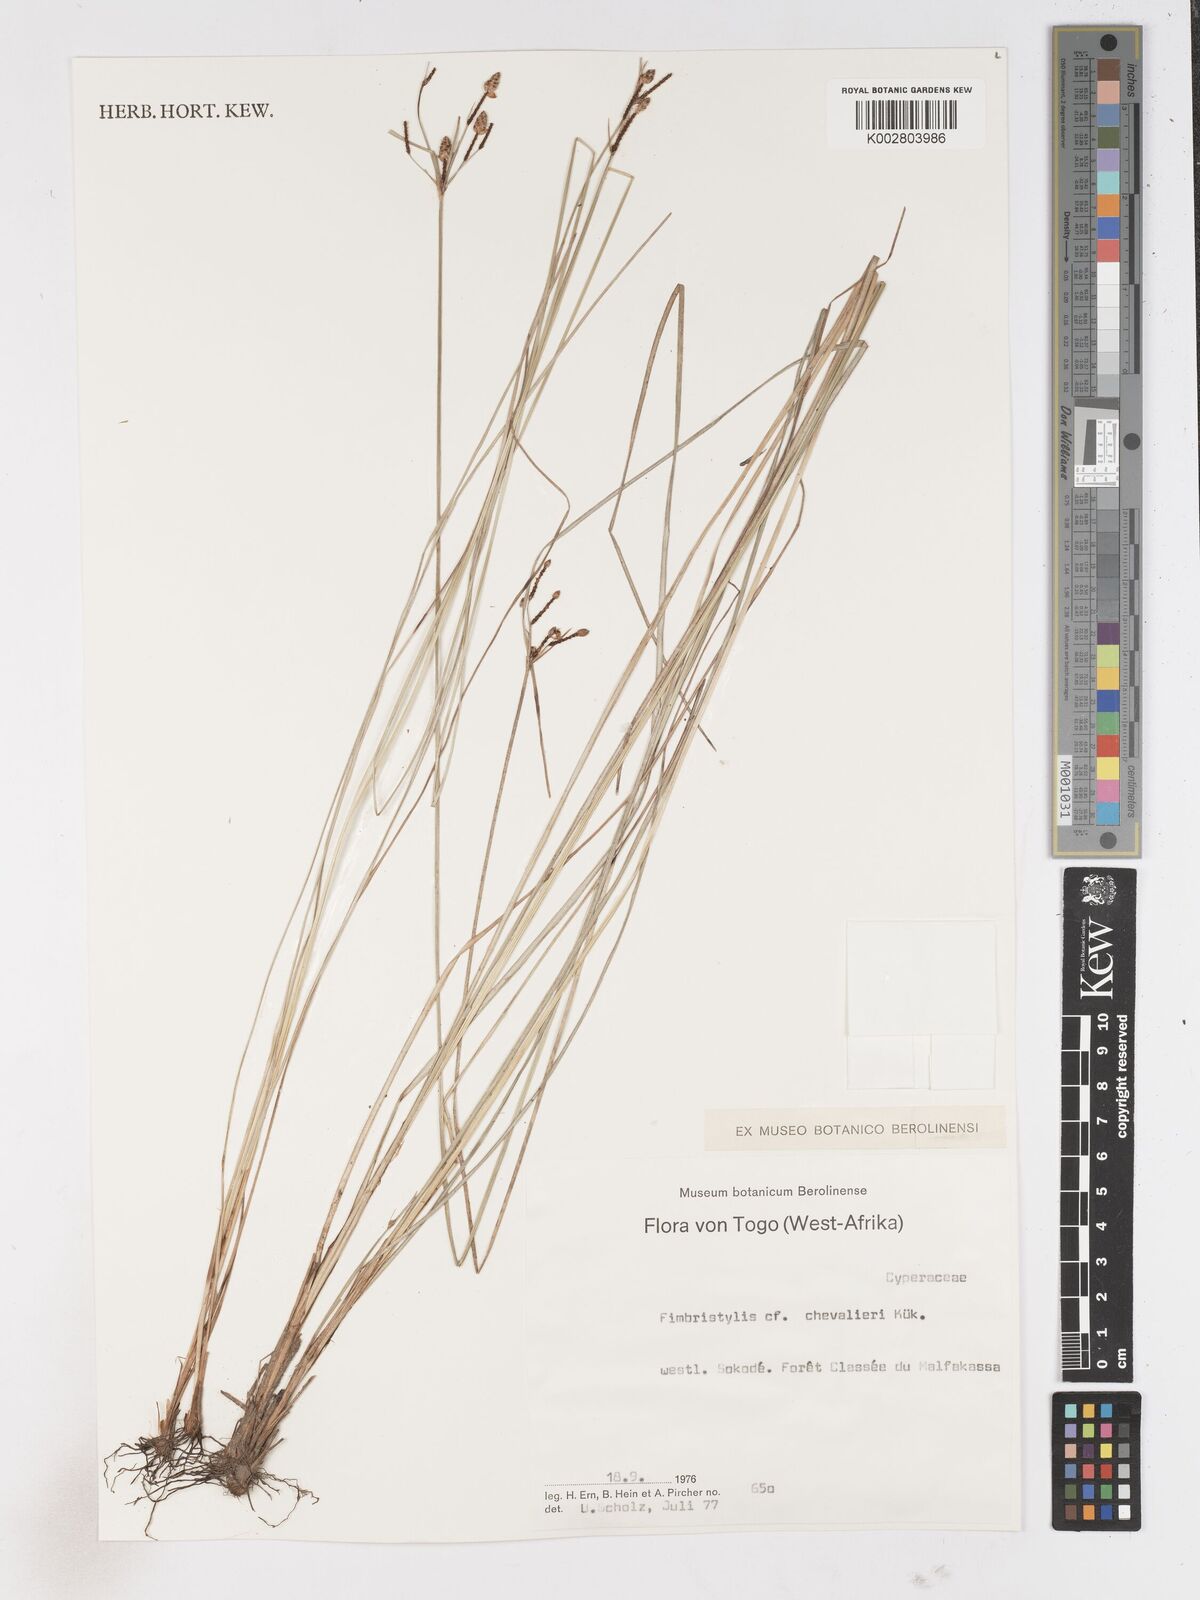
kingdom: Plantae
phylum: Tracheophyta
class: Liliopsida
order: Poales
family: Cyperaceae
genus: Fimbristylis
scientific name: Fimbristylis barteri
